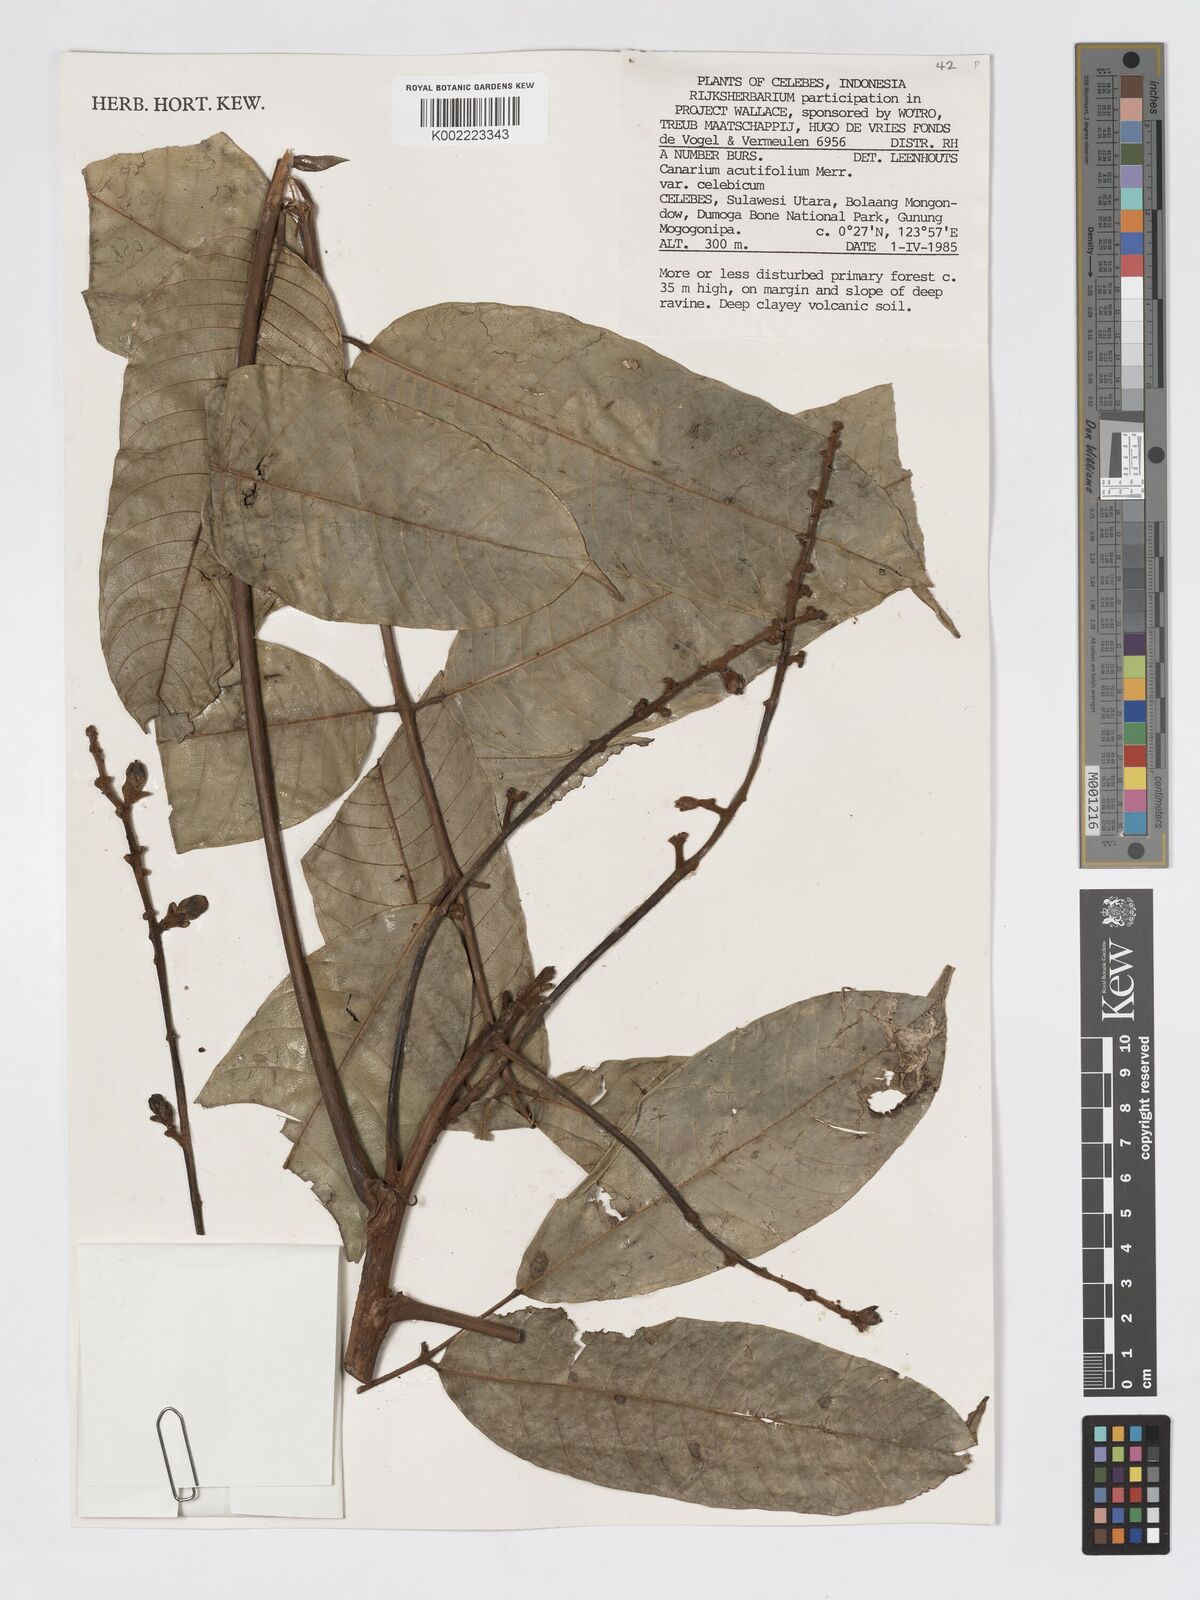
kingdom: Plantae
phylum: Tracheophyta
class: Magnoliopsida
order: Sapindales
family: Burseraceae
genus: Canarium
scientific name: Canarium acutifolium
